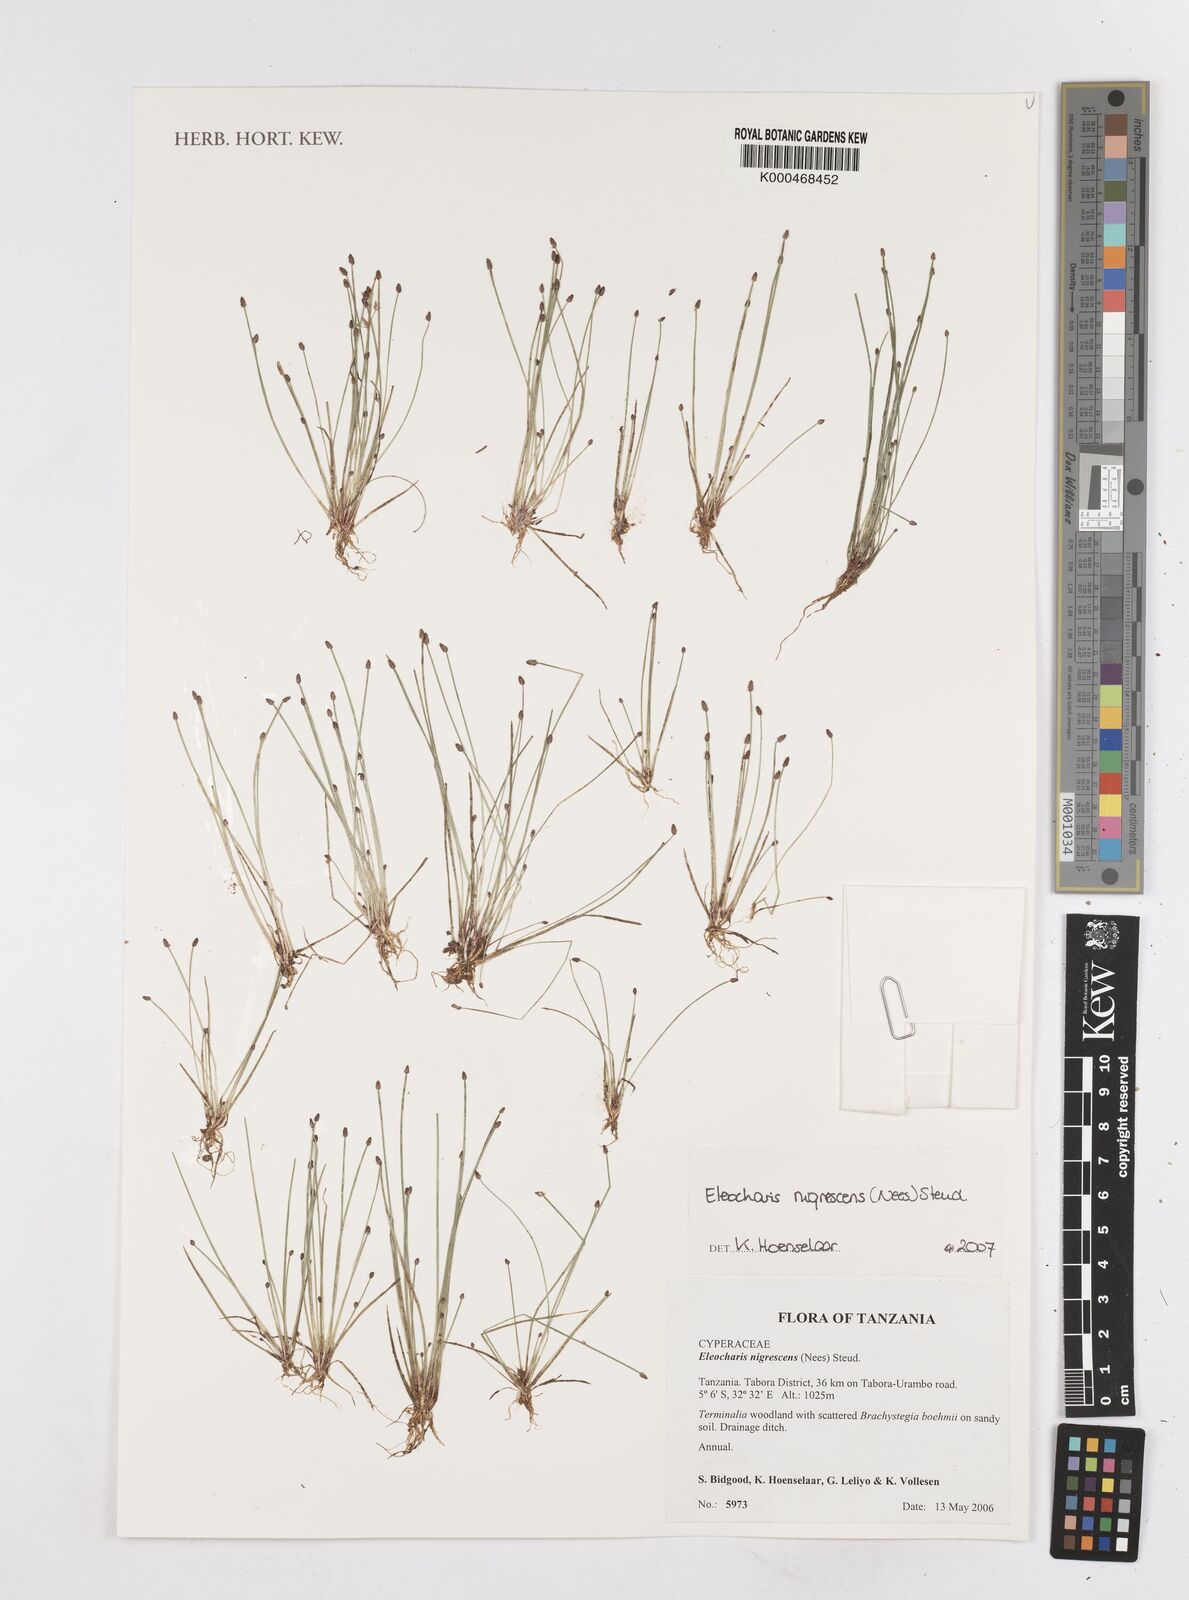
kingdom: Plantae
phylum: Tracheophyta
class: Liliopsida
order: Poales
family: Cyperaceae
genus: Eleocharis
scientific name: Eleocharis
